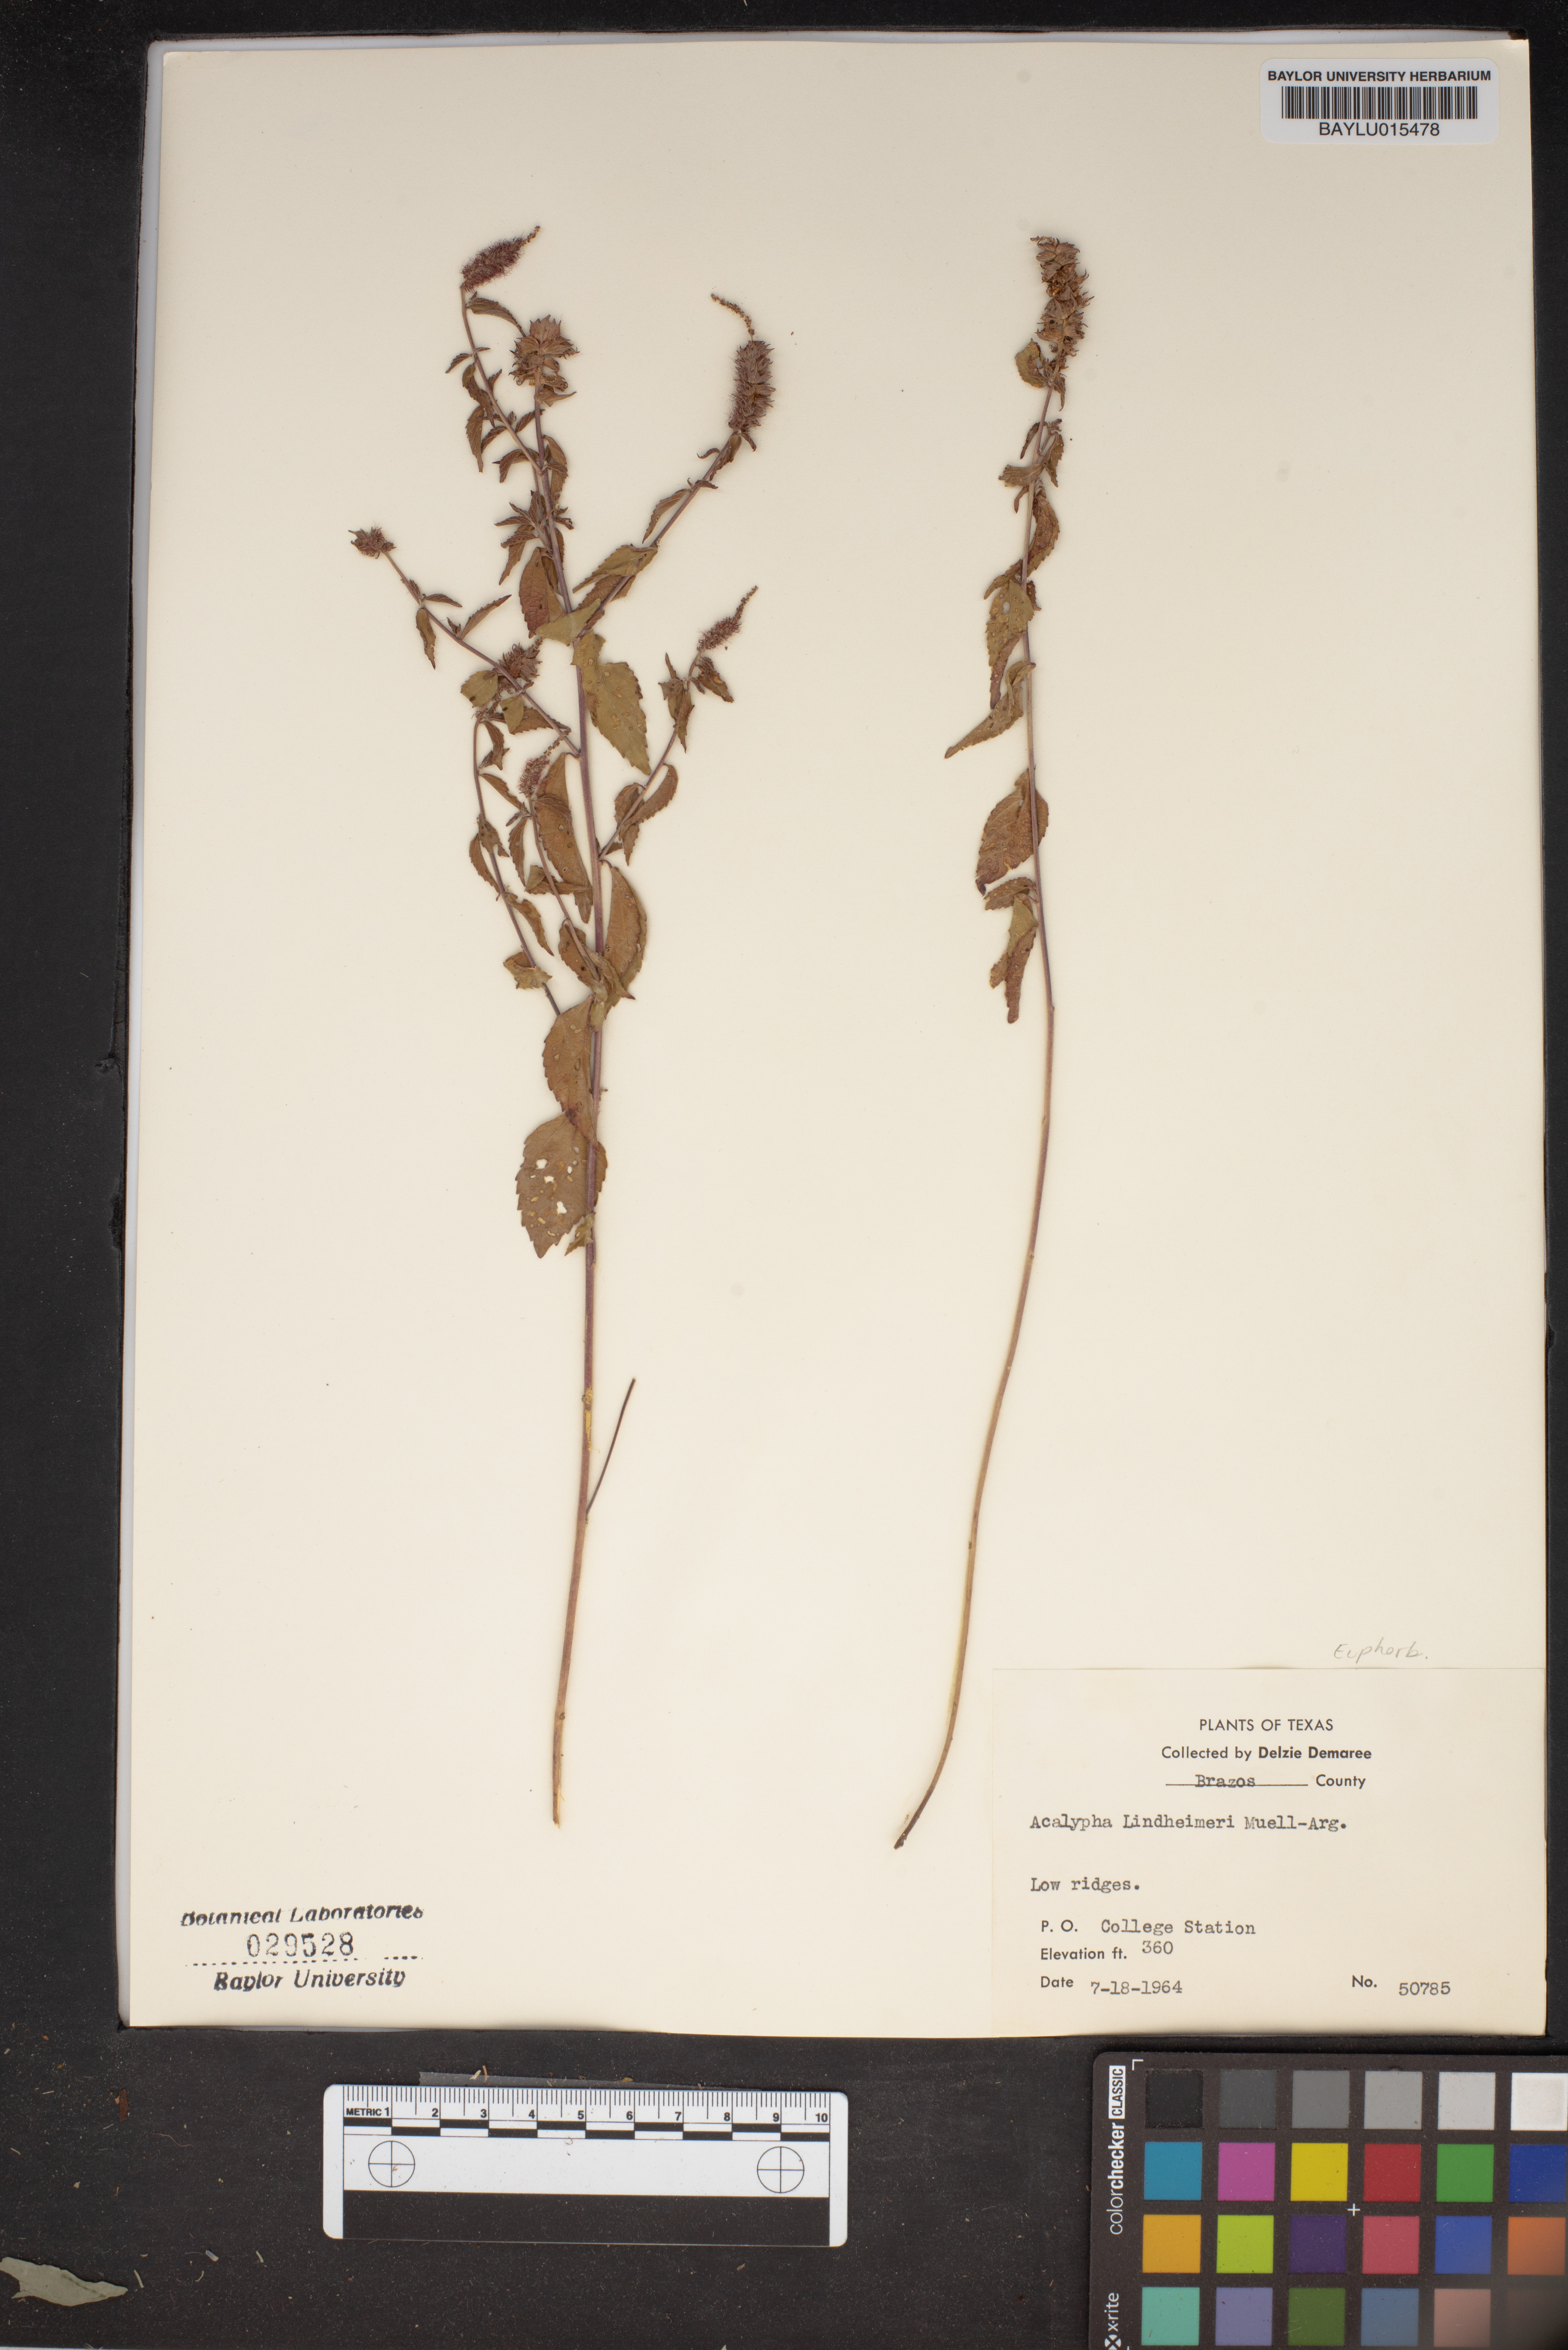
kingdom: Plantae
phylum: Tracheophyta
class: Magnoliopsida
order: Malpighiales
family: Euphorbiaceae
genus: Acalypha
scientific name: Acalypha phleoides
